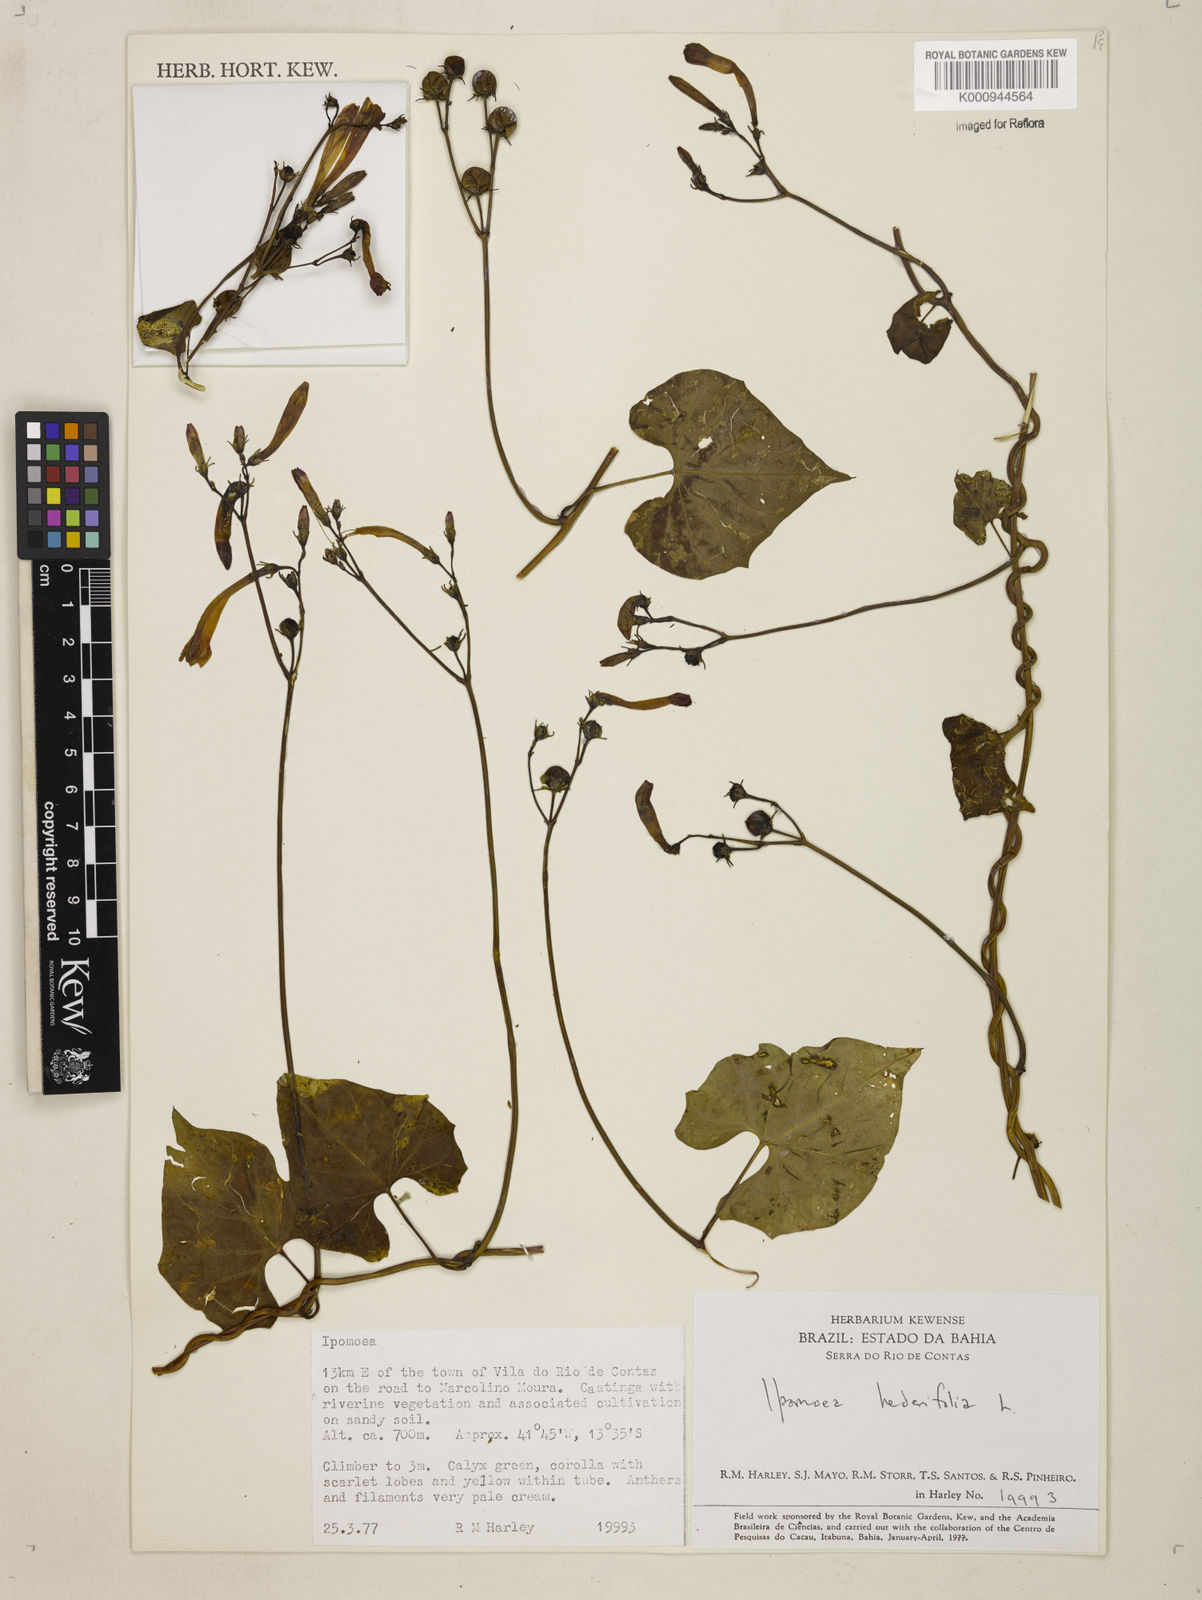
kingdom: Plantae
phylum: Tracheophyta
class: Magnoliopsida
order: Solanales
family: Convolvulaceae
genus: Ipomoea
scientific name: Ipomoea hederifolia
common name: Ivy-leaf morning-glory
